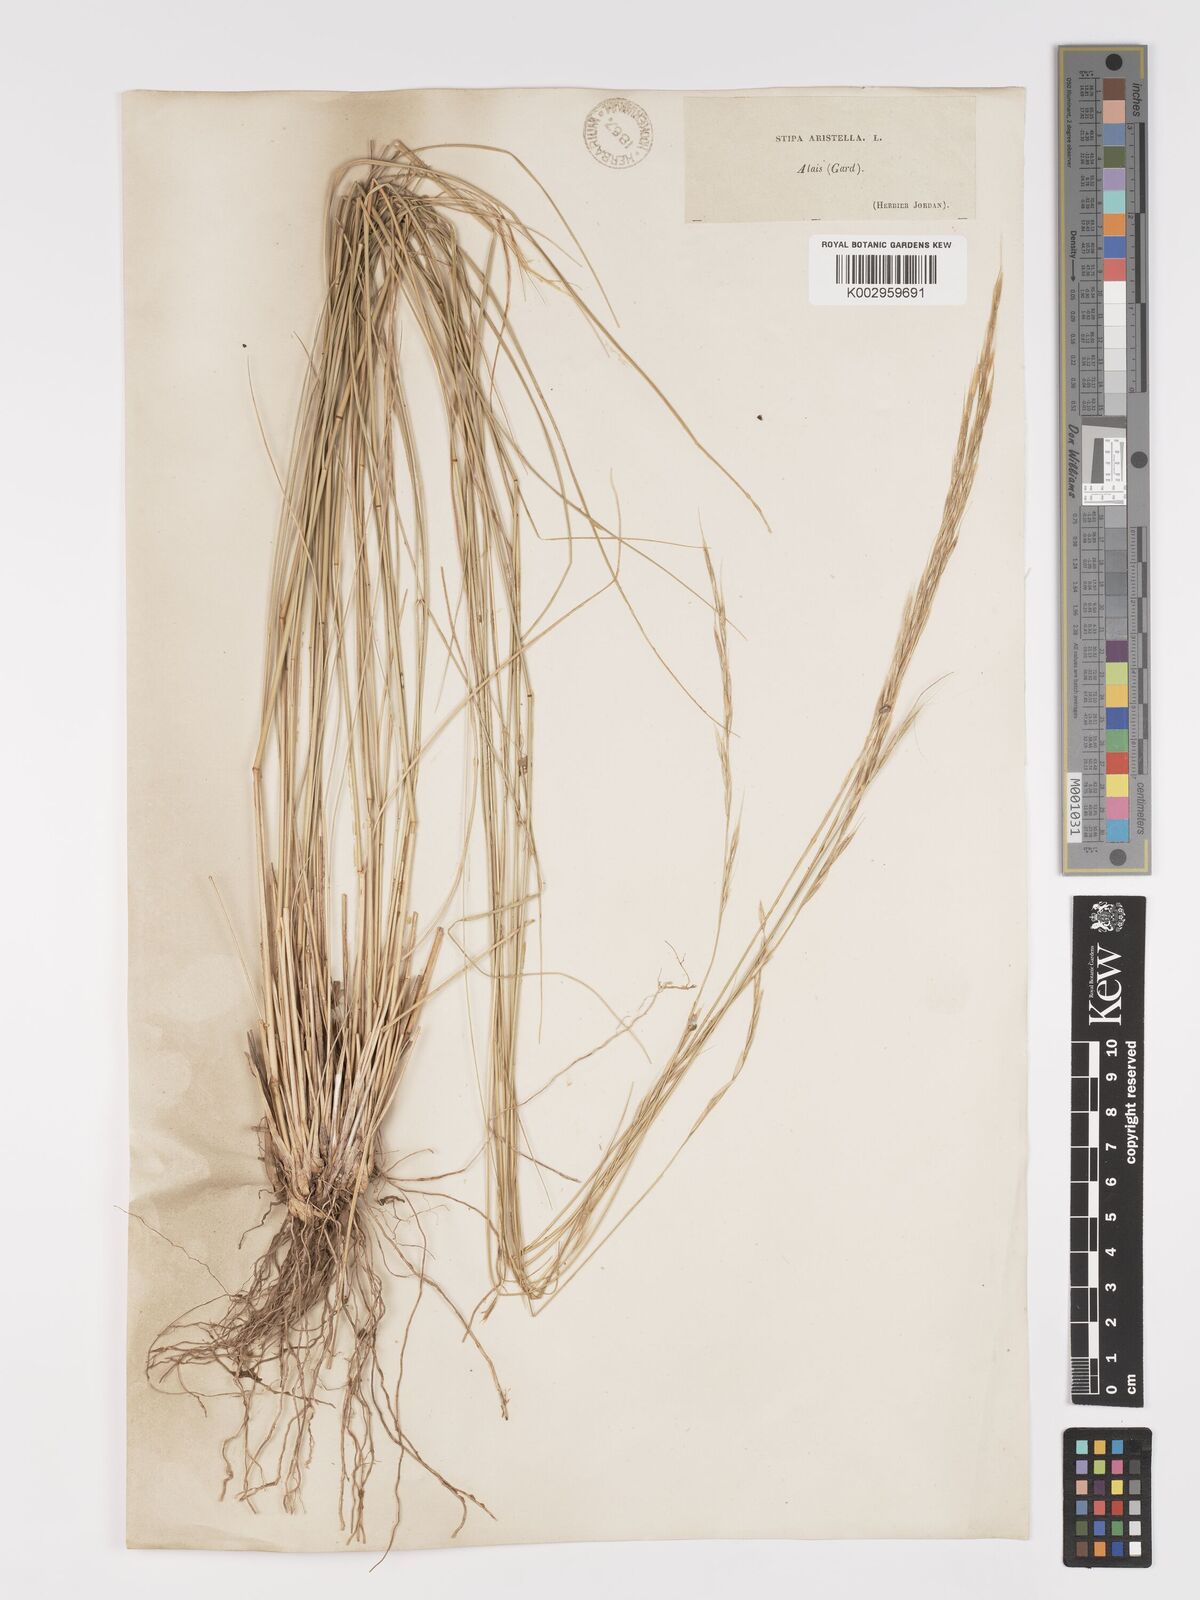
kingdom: Plantae
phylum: Tracheophyta
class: Liliopsida
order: Poales
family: Poaceae
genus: Achnatherum
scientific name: Achnatherum bromoides
